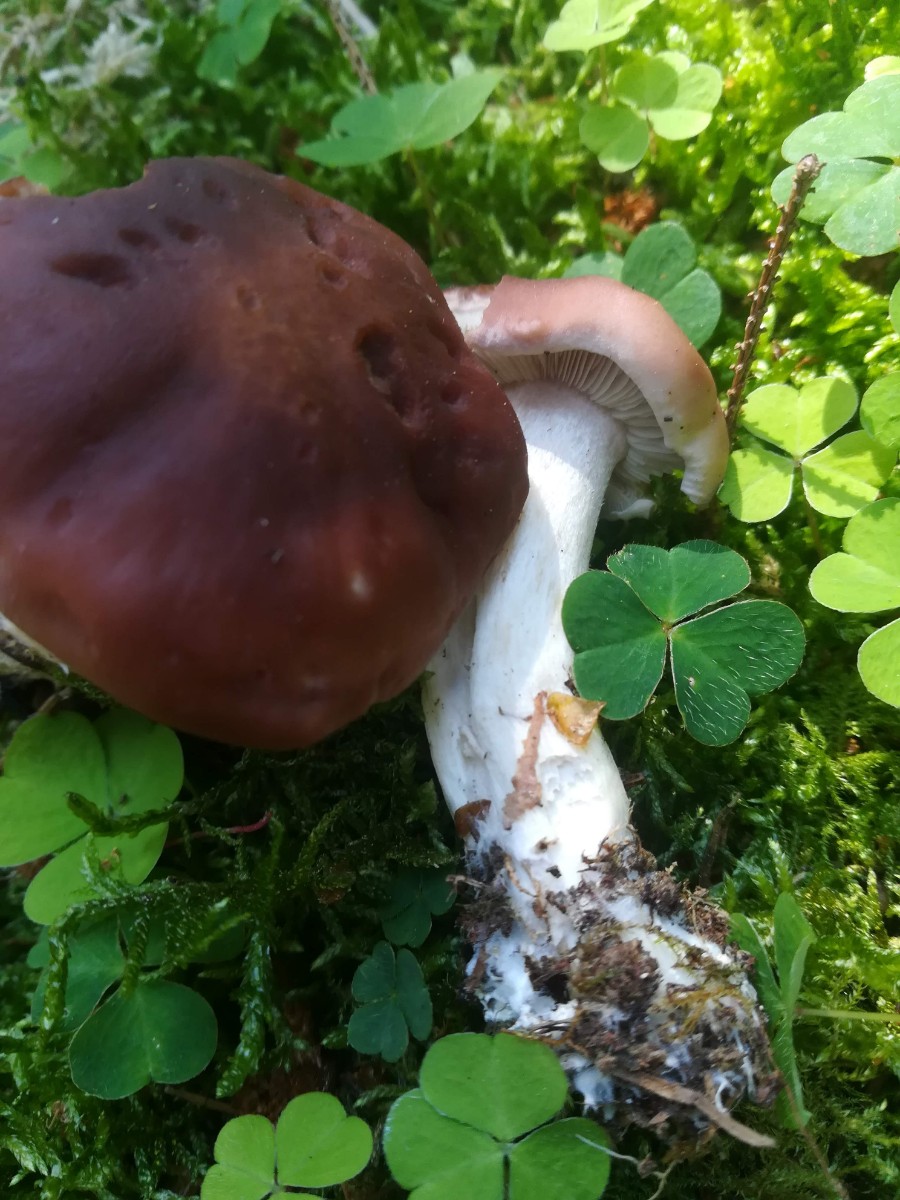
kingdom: Fungi
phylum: Basidiomycota
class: Agaricomycetes
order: Agaricales
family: Lyophyllaceae
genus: Gerhardtia
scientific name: Gerhardtia borealis
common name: rosabrun fagerhat
